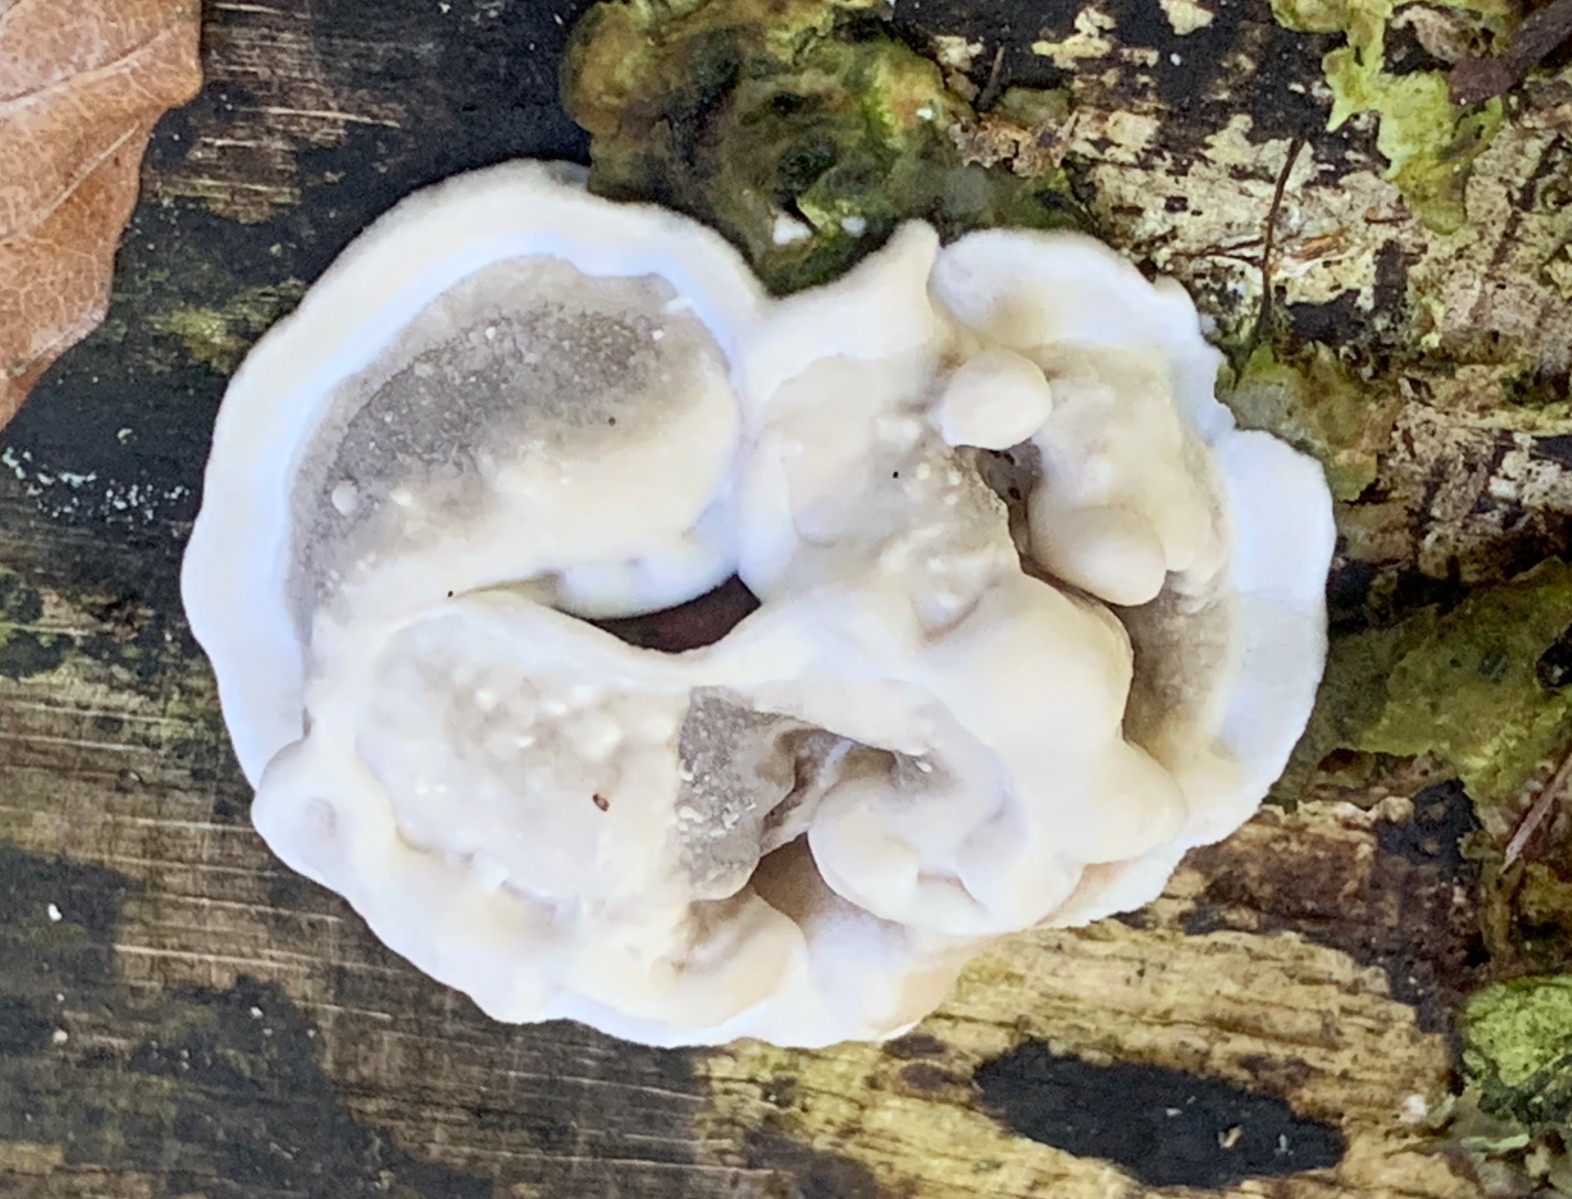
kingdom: Fungi
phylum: Basidiomycota
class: Agaricomycetes
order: Polyporales
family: Polyporaceae
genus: Trametes
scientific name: Trametes gibbosa
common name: puklet læderporesvamp
